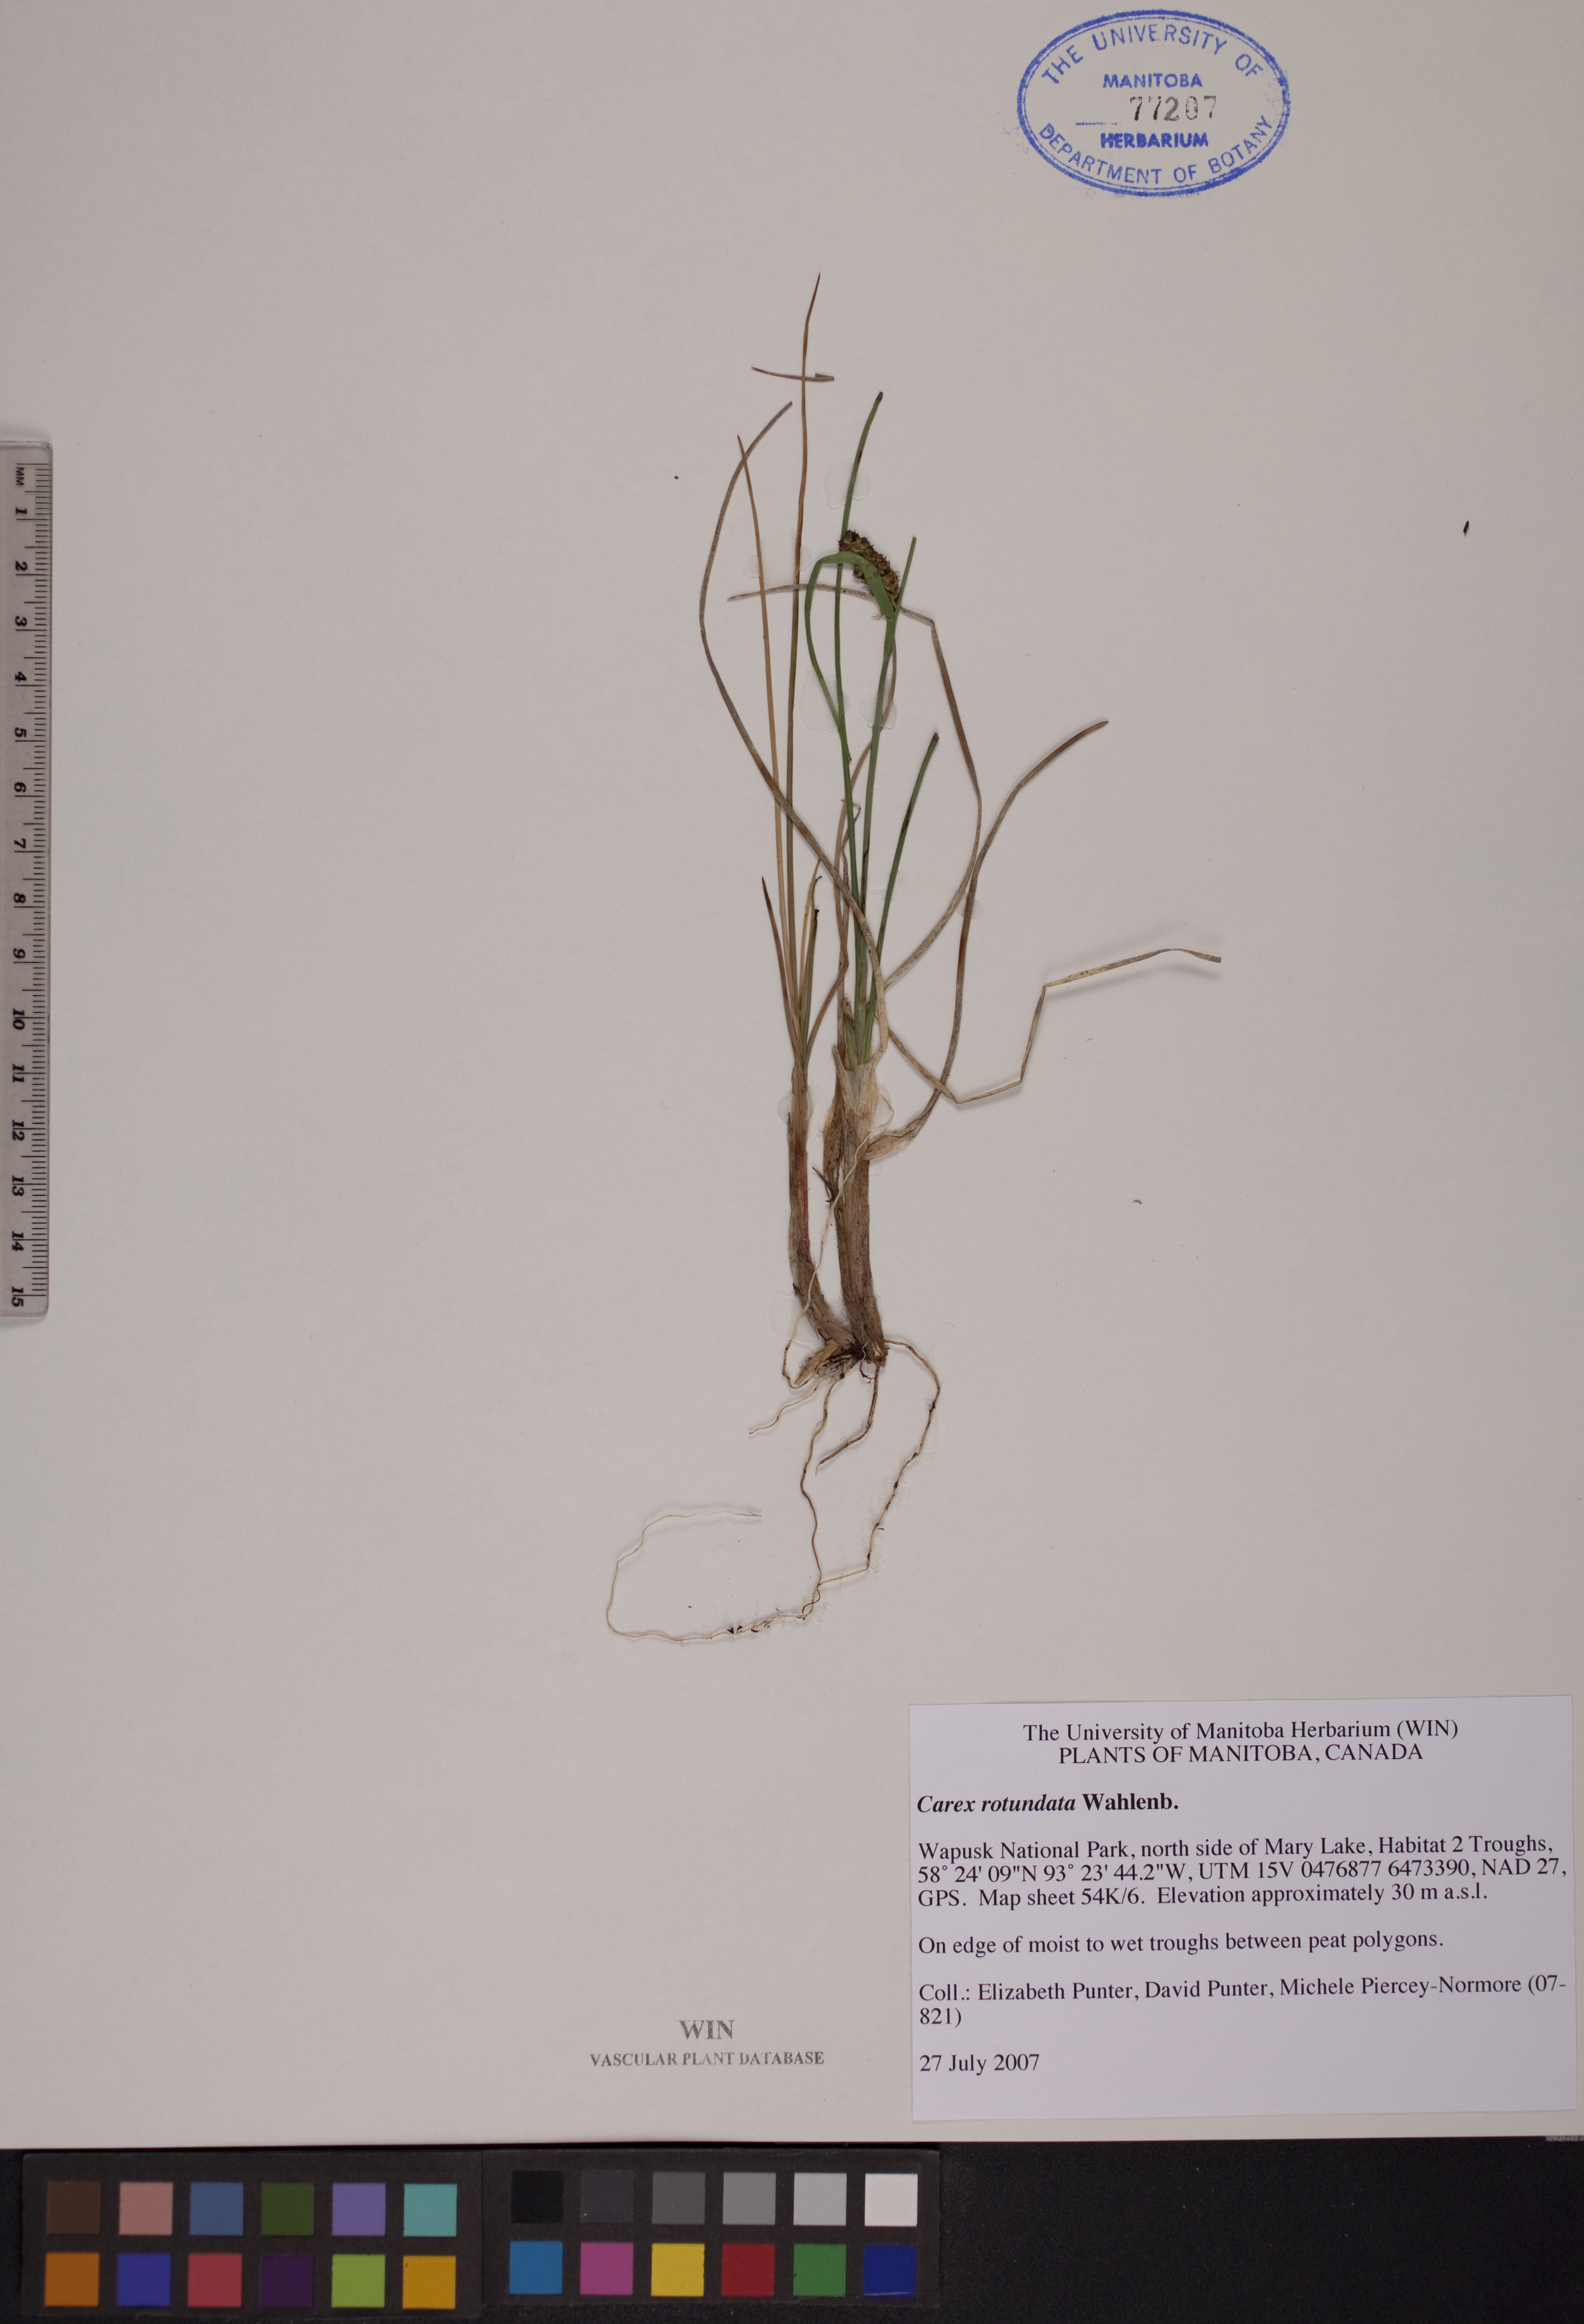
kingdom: Plantae
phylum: Tracheophyta
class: Liliopsida
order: Poales
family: Cyperaceae
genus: Carex
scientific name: Carex rotundata
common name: Round-fruited sedge
